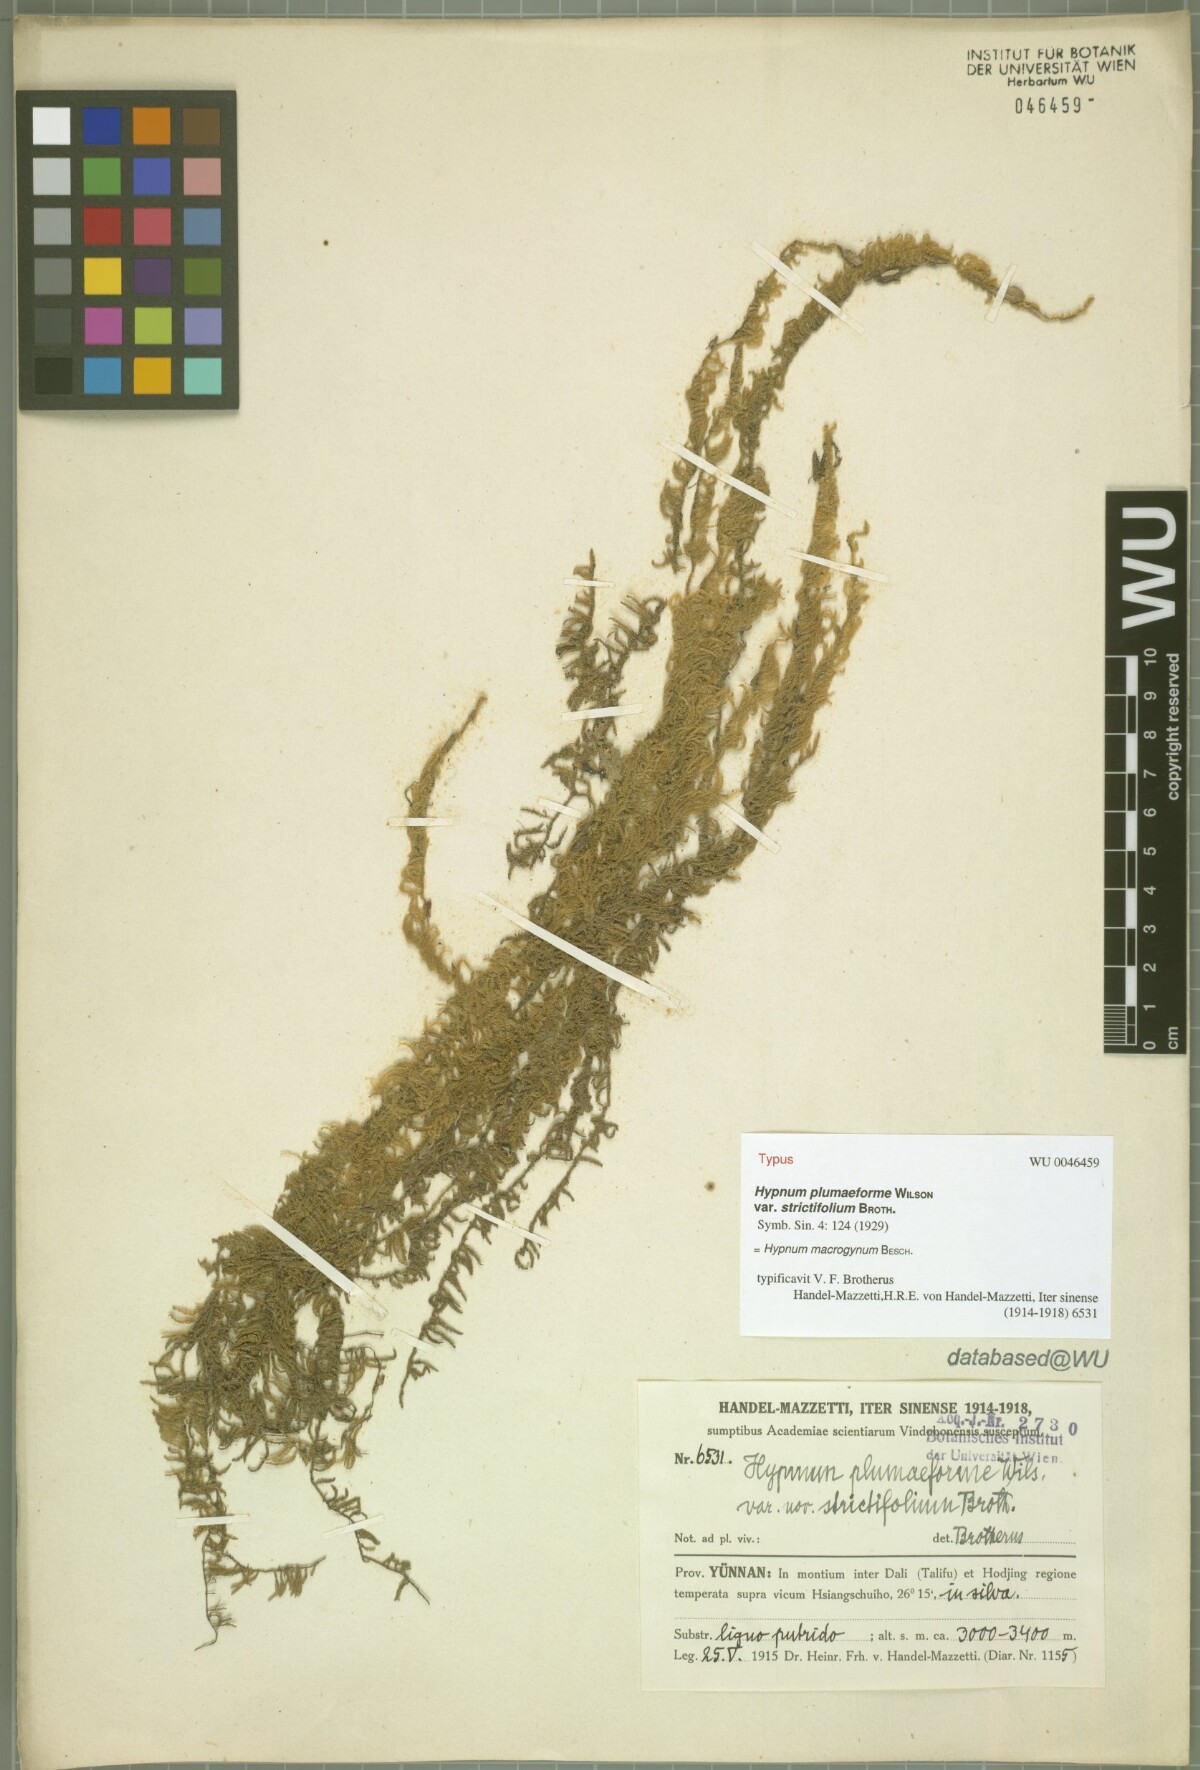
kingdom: Plantae
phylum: Bryophyta
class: Bryopsida
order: Hypnales
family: Pylaisiaceae
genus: Calohypnum
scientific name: Calohypnum macrogynum
